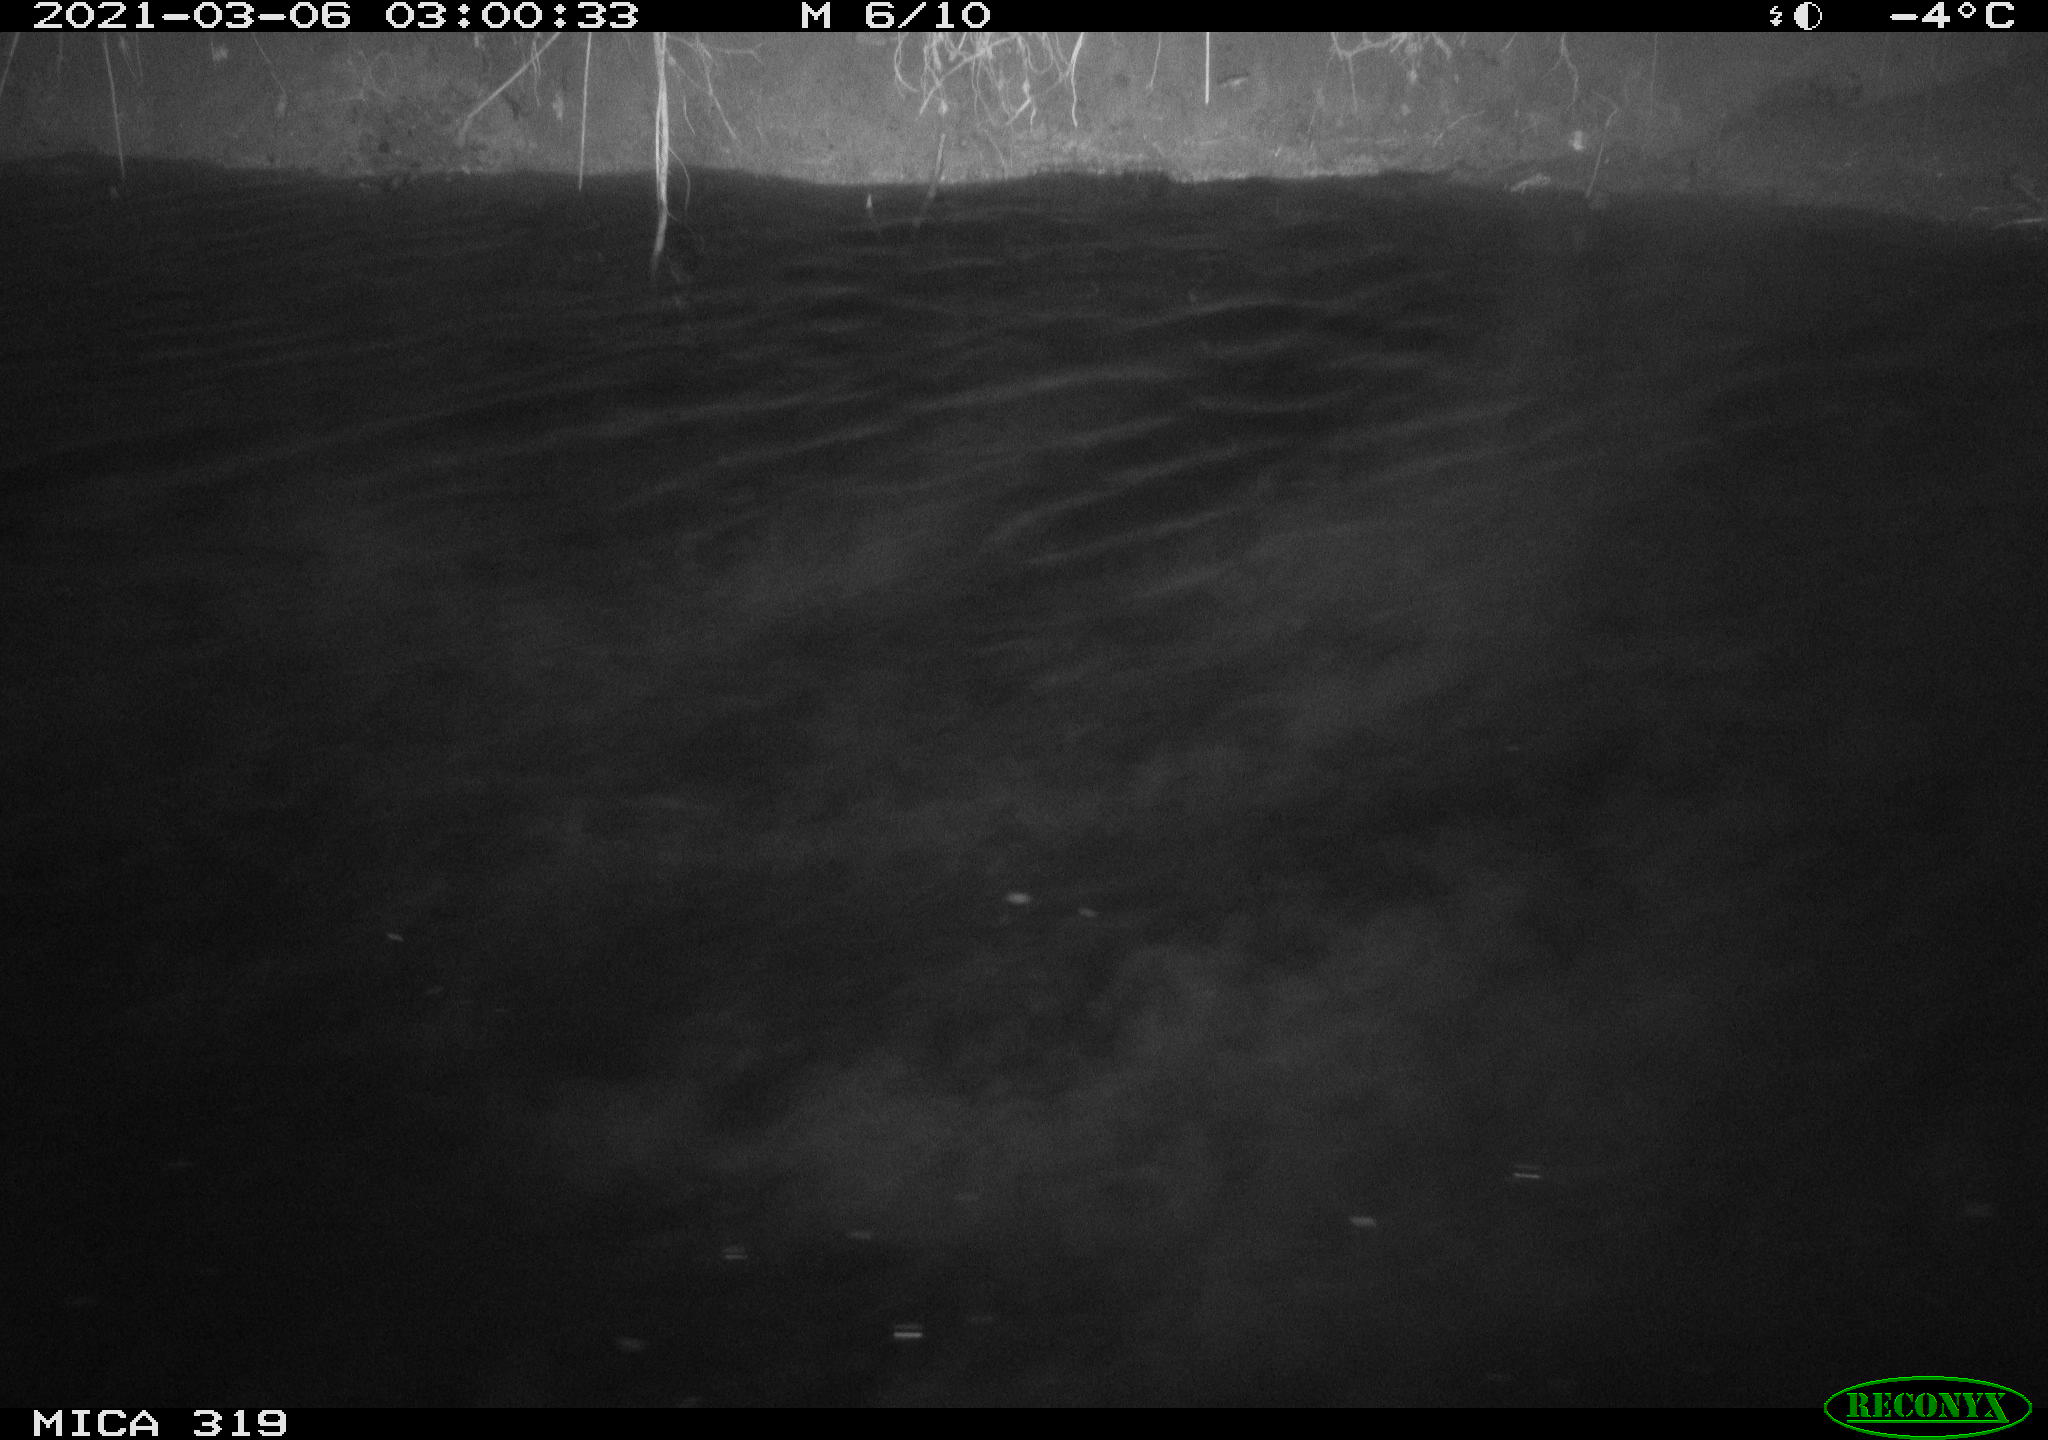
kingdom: Animalia
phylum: Chordata
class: Aves
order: Anseriformes
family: Anatidae
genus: Anas
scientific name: Anas platyrhynchos
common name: Mallard
